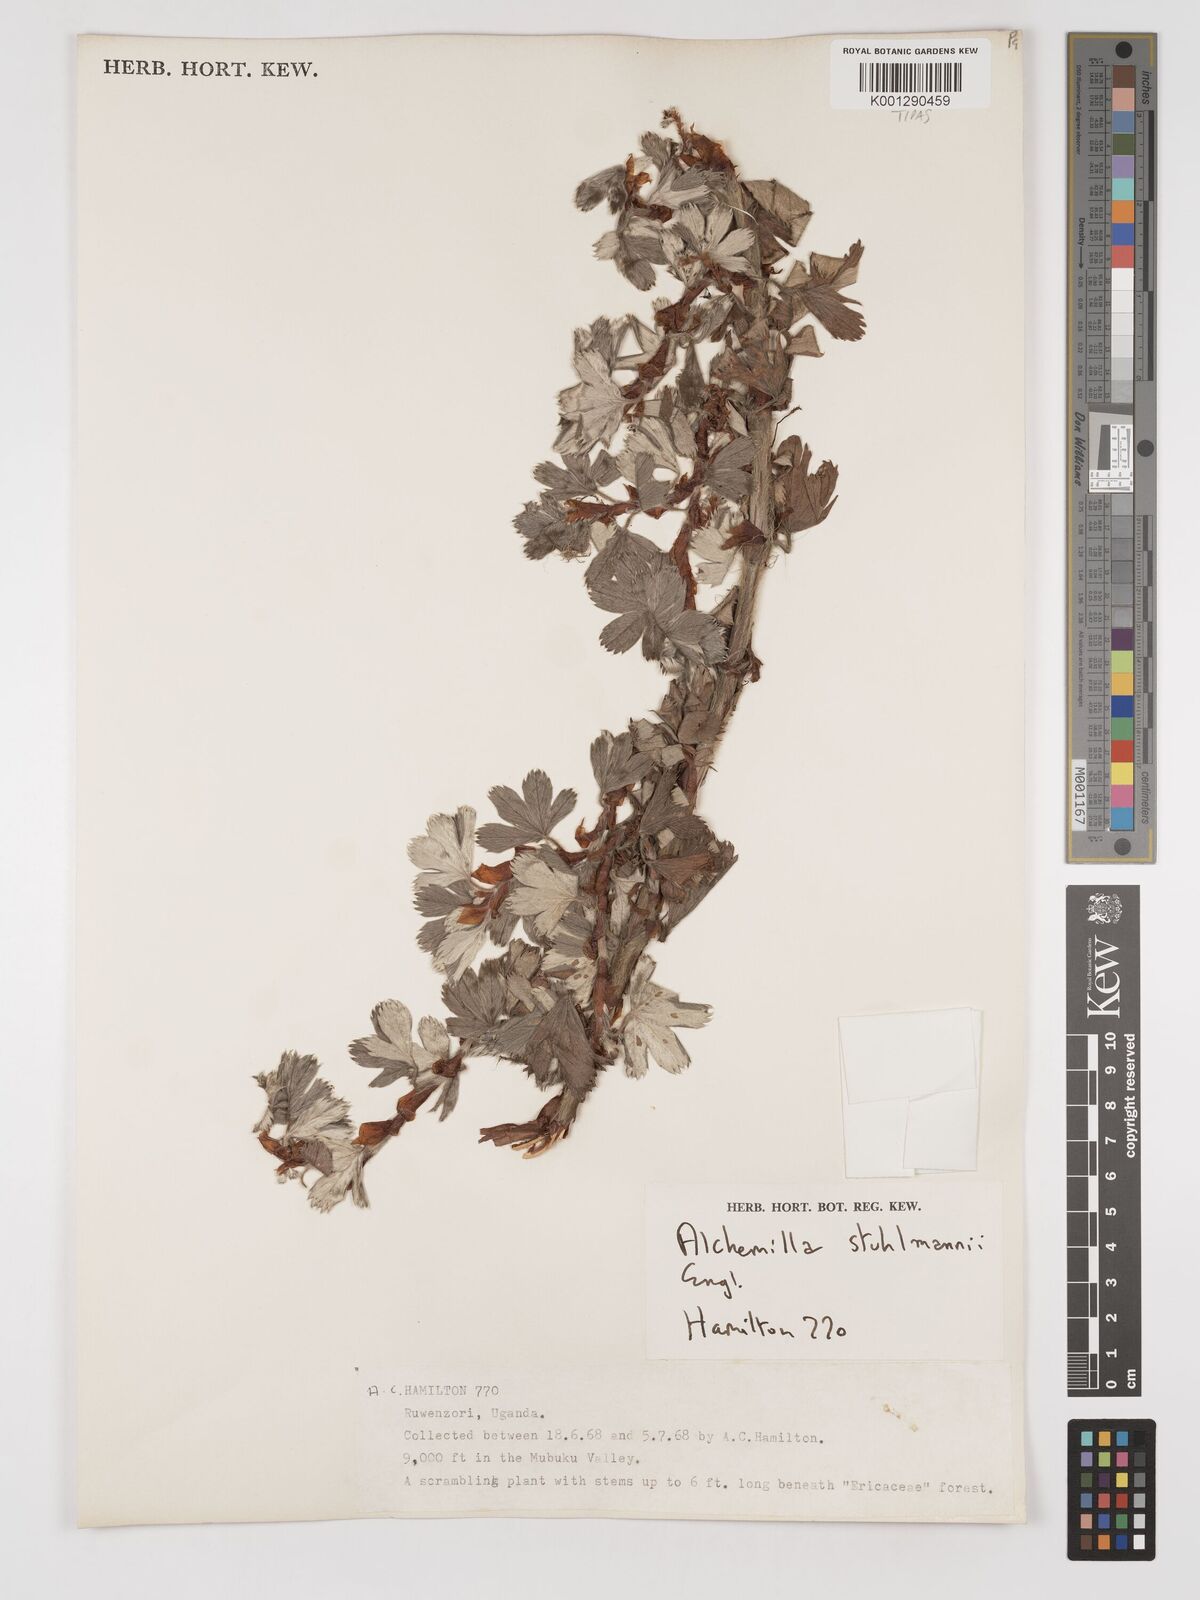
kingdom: Plantae
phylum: Tracheophyta
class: Magnoliopsida
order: Rosales
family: Rosaceae
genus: Alchemilla
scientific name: Alchemilla stuhlmannii
